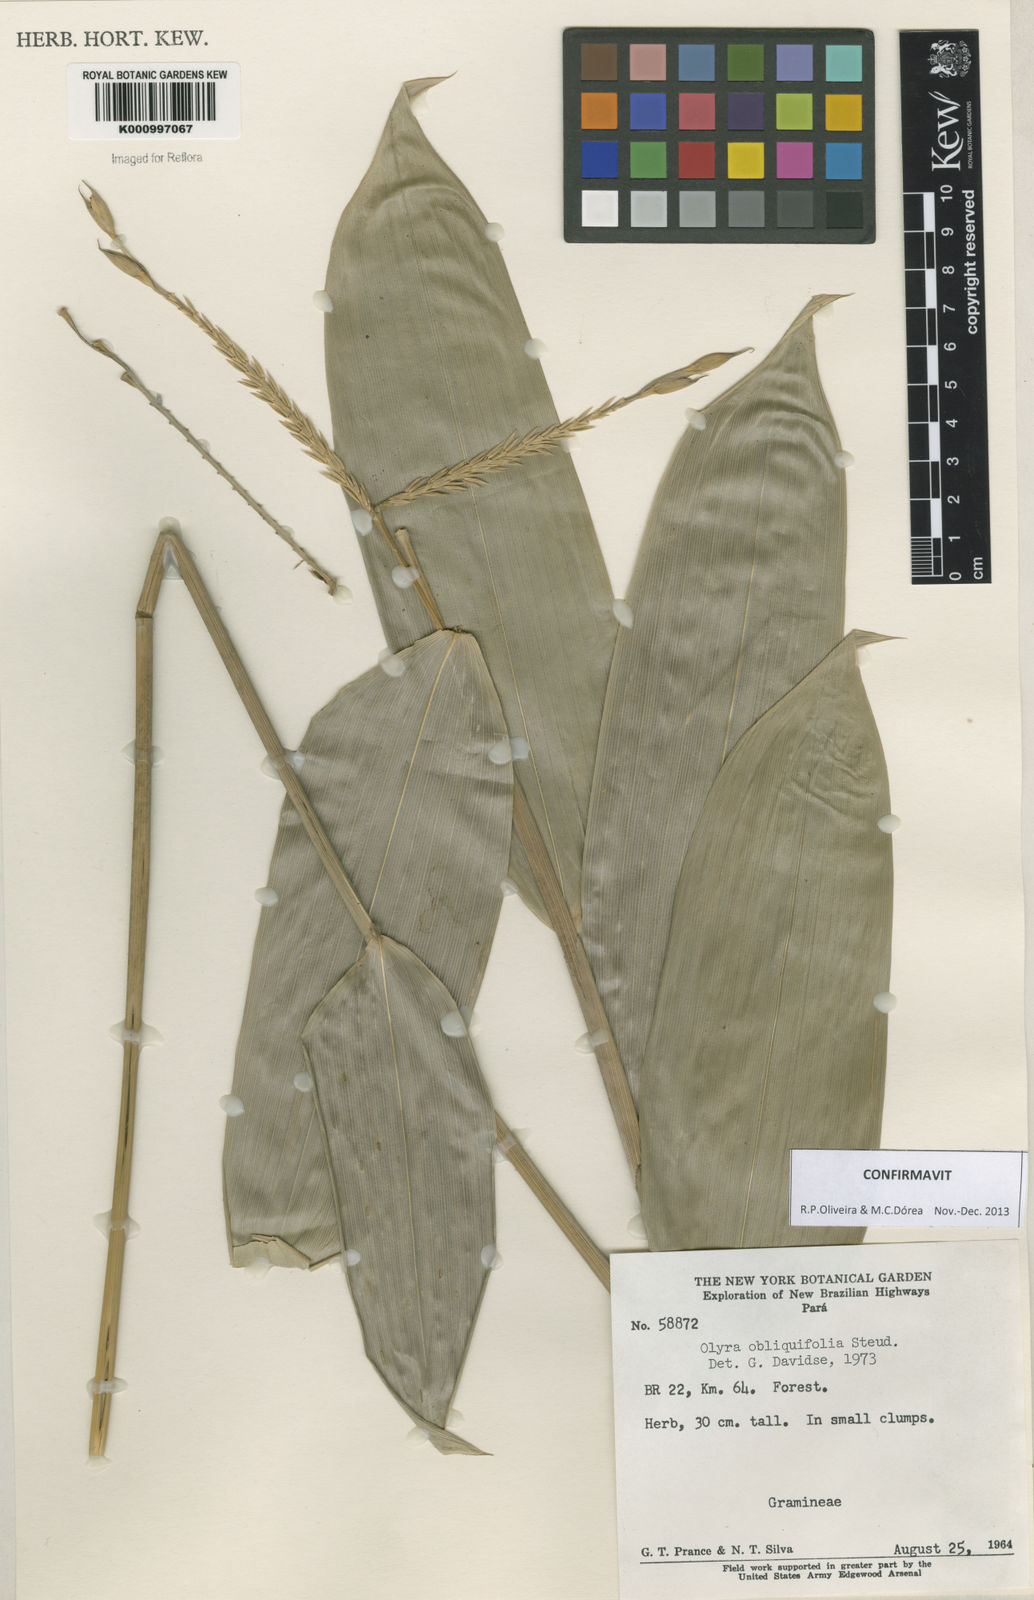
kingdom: Plantae
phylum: Tracheophyta
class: Liliopsida
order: Poales
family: Poaceae
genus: Olyra
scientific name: Olyra obliquifolia
